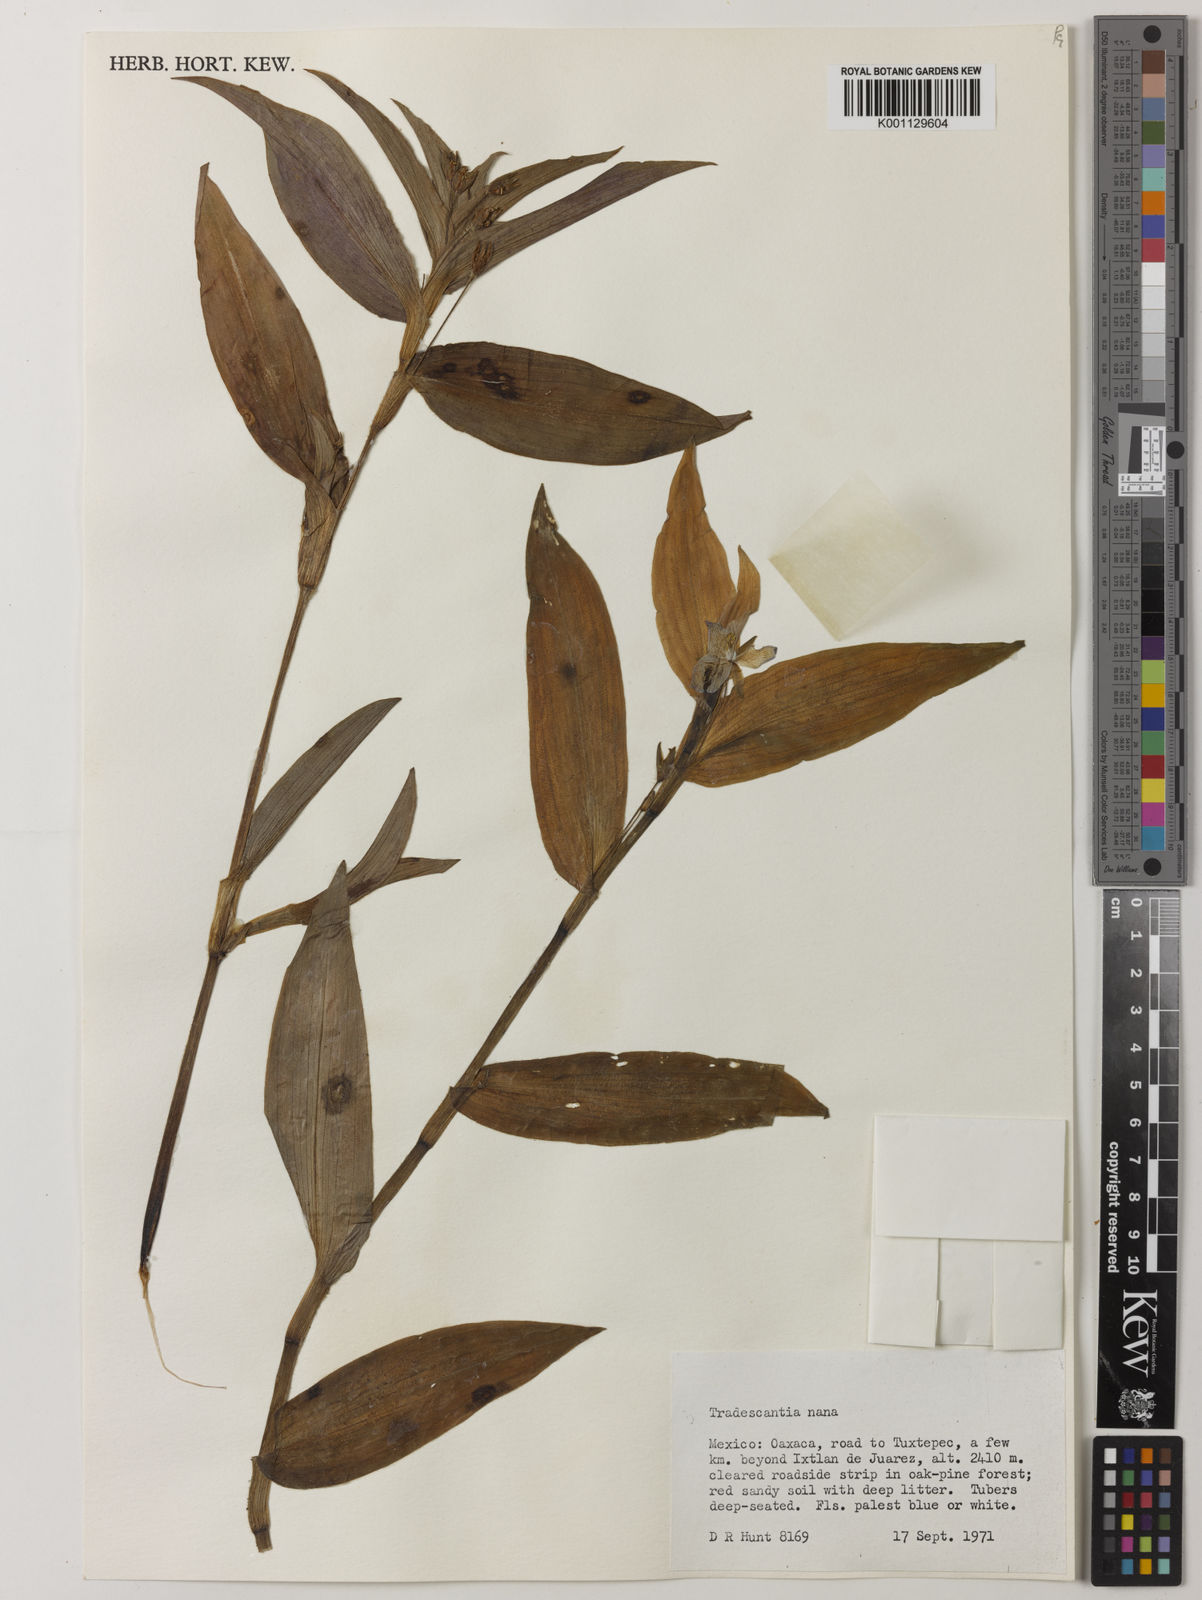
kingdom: Plantae
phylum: Tracheophyta
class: Liliopsida
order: Commelinales
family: Commelinaceae
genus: Matudanthus
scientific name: Matudanthus nanus
